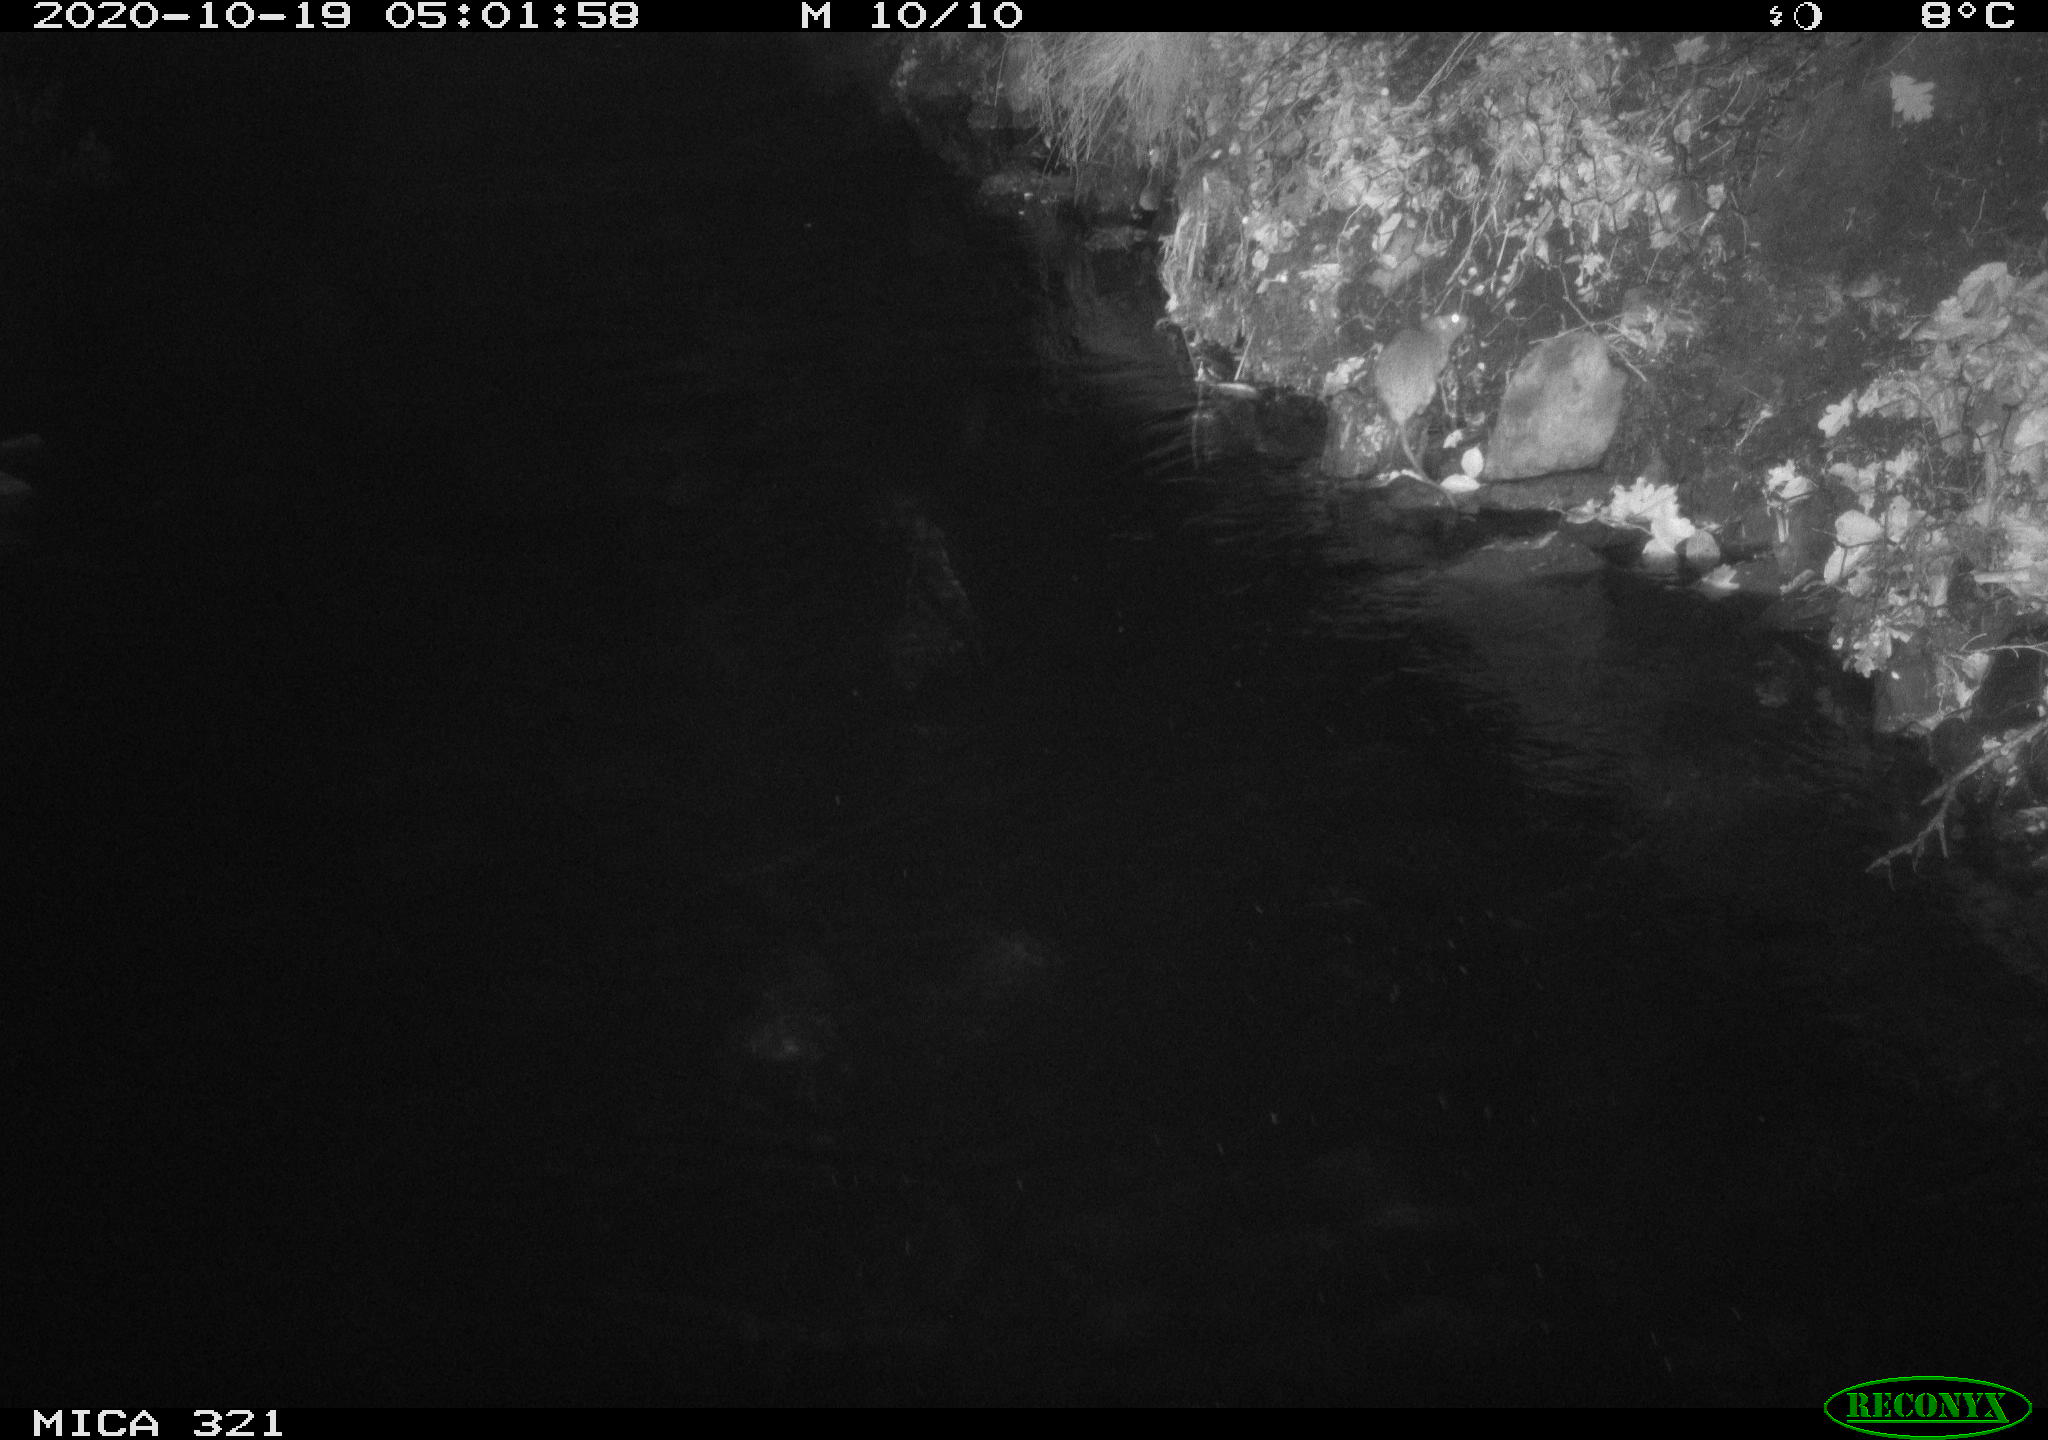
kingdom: Animalia
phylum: Chordata
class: Mammalia
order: Rodentia
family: Muridae
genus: Rattus
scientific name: Rattus norvegicus
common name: Brown rat
